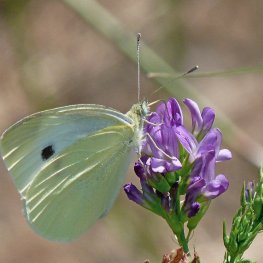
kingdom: Animalia
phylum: Arthropoda
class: Insecta
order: Lepidoptera
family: Pieridae
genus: Pieris
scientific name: Pieris rapae
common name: Cabbage White
